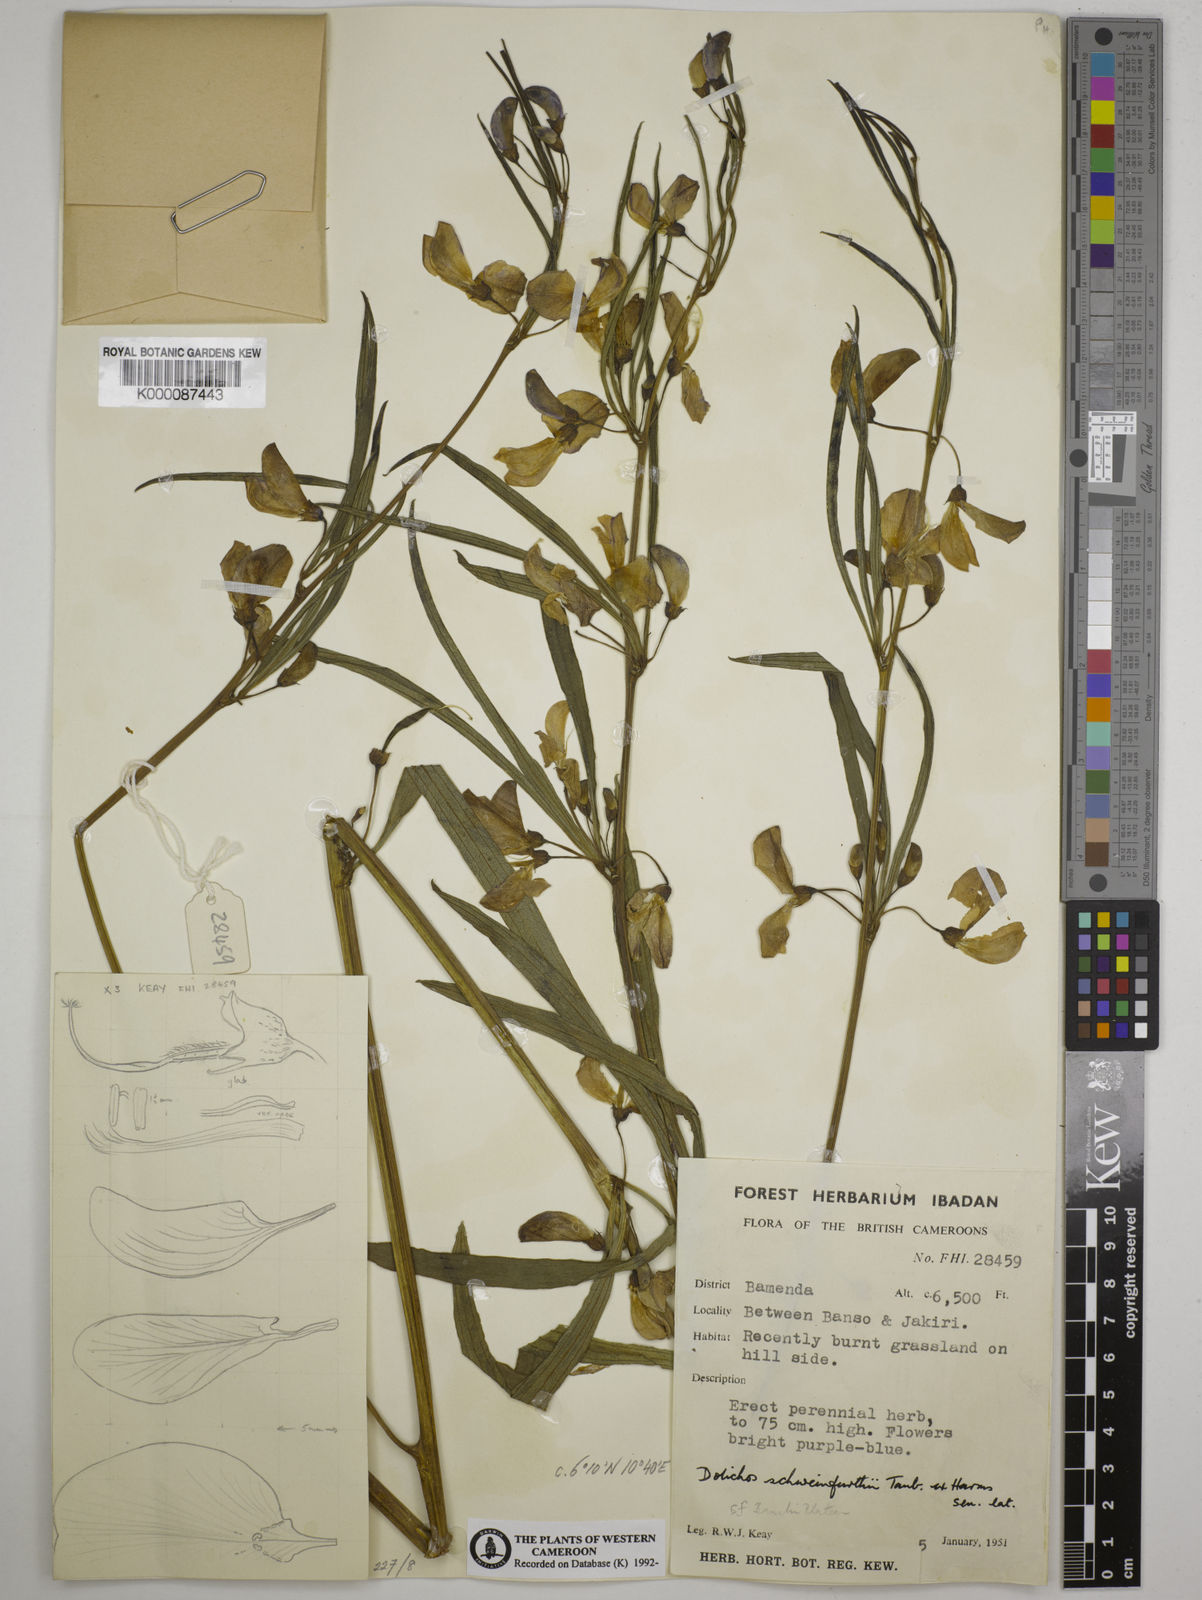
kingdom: Plantae
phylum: Tracheophyta
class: Magnoliopsida
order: Fabales
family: Fabaceae
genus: Dolichos
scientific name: Dolichos
